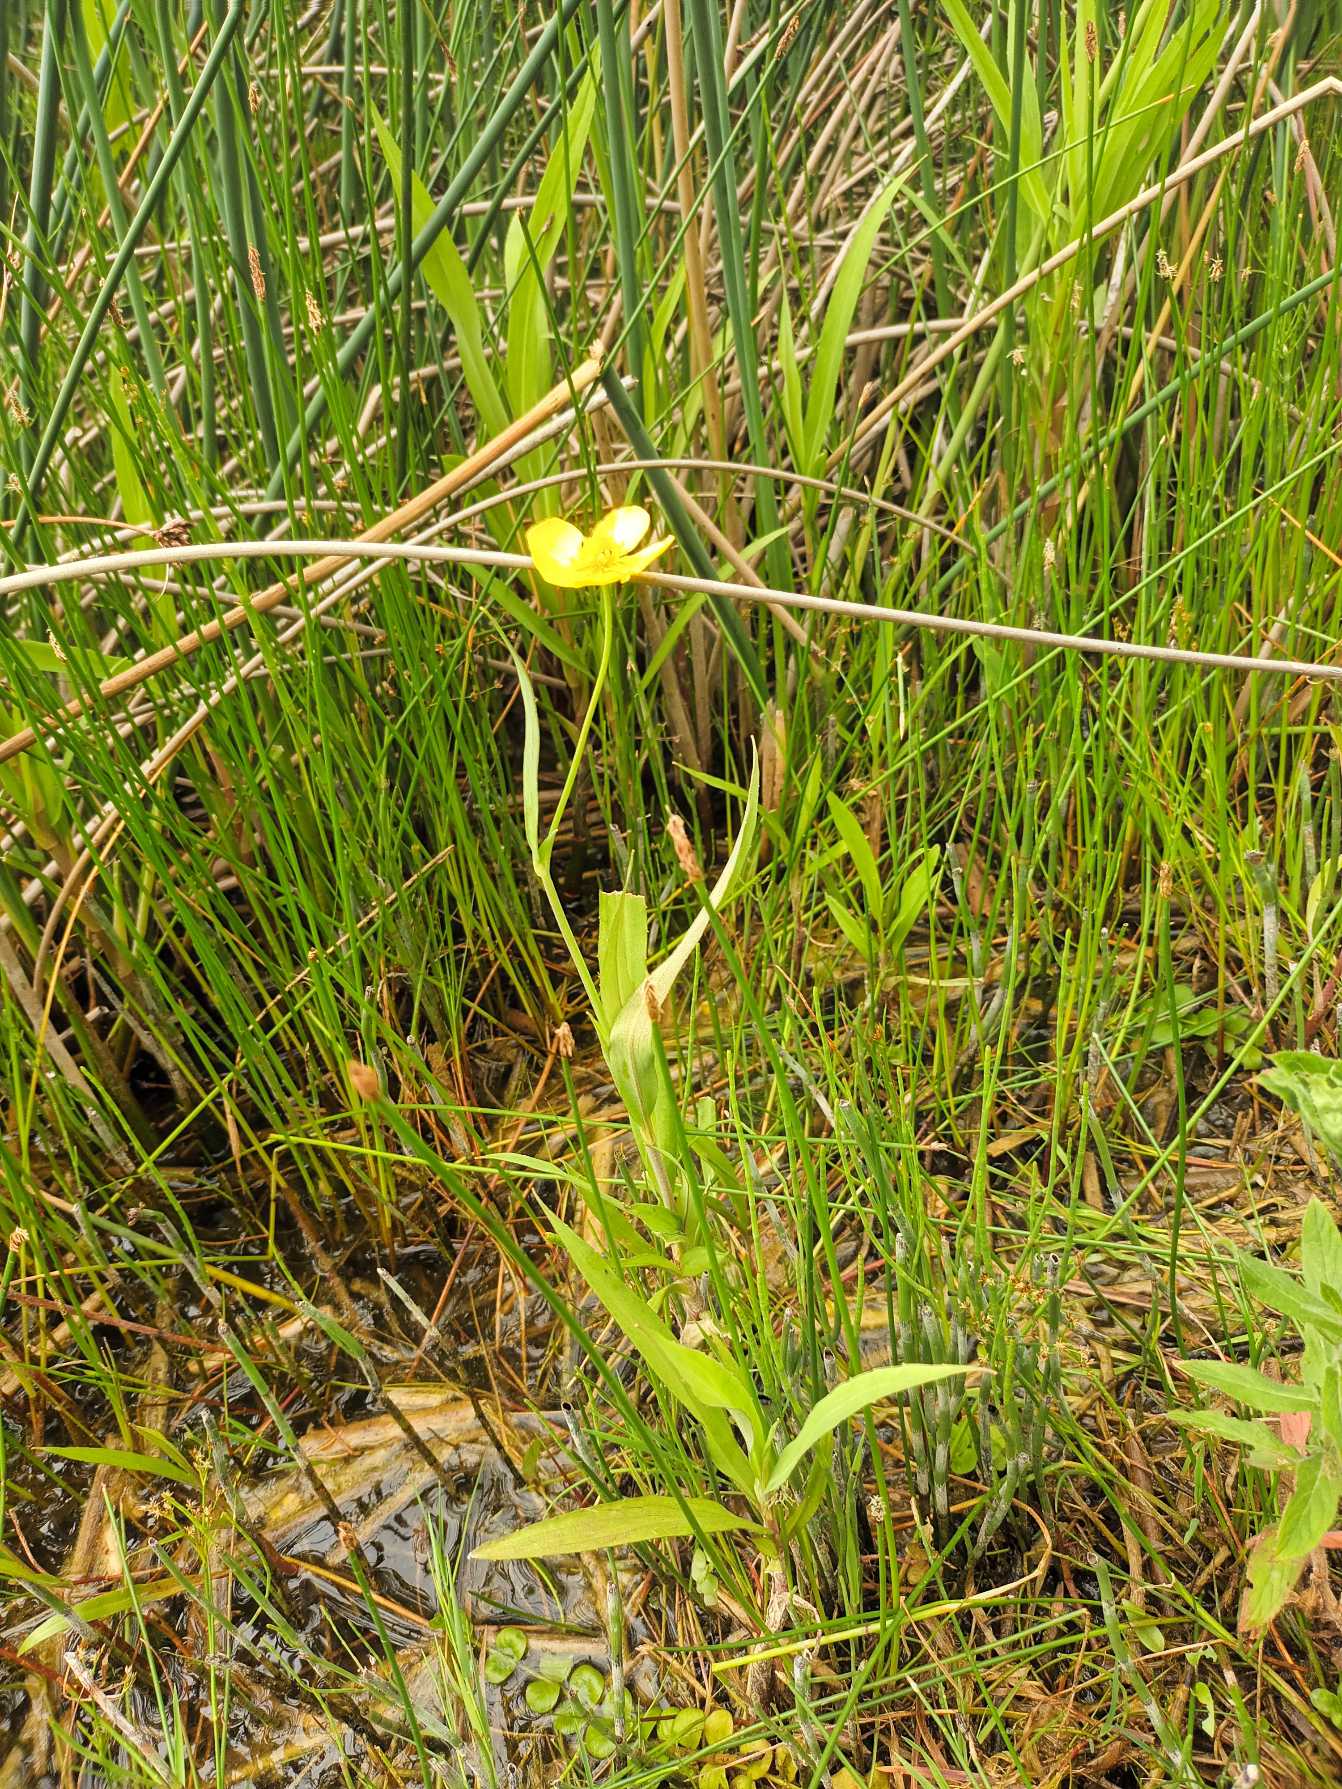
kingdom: Plantae
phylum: Tracheophyta
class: Magnoliopsida
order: Ranunculales
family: Ranunculaceae
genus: Ranunculus
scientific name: Ranunculus lingua
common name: Langbladet ranunkel
